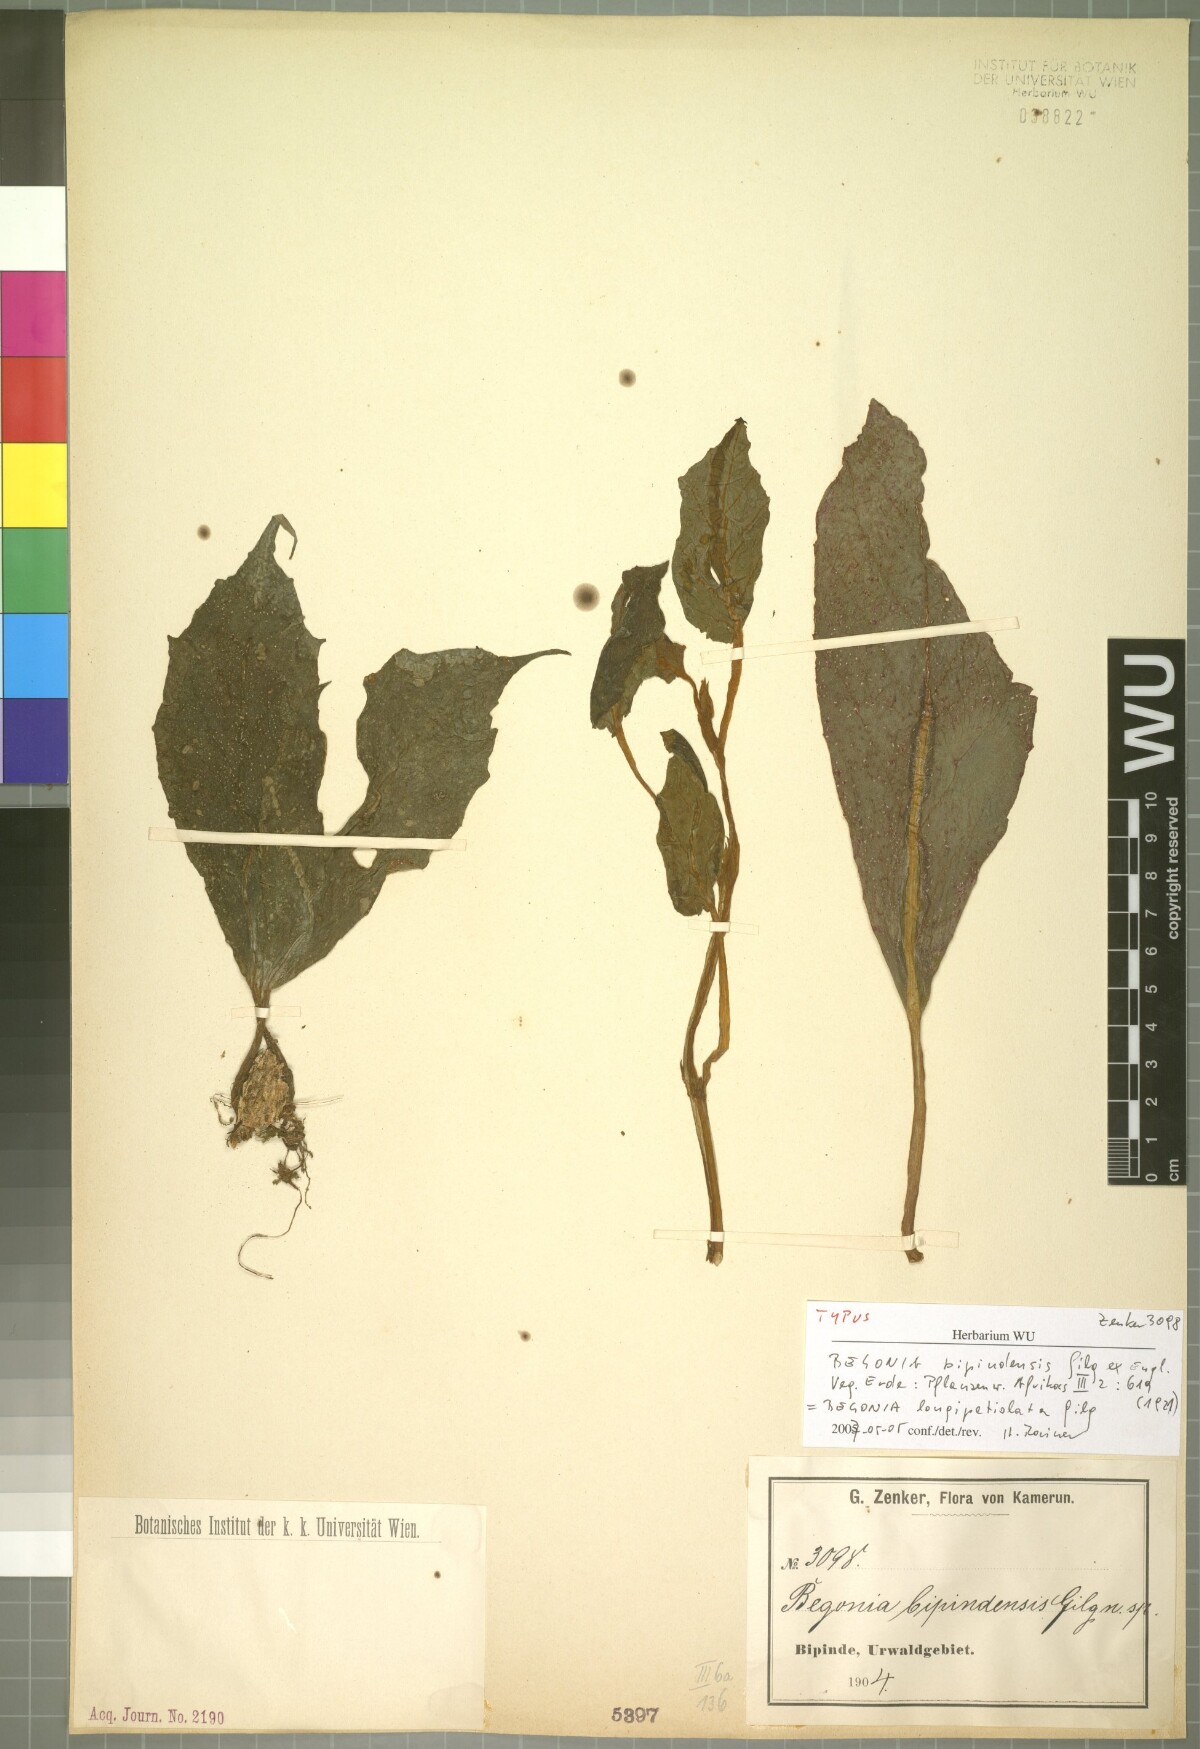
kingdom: Plantae
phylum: Tracheophyta
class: Magnoliopsida
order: Cucurbitales
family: Begoniaceae
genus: Begonia
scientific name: Begonia longipetiolata
